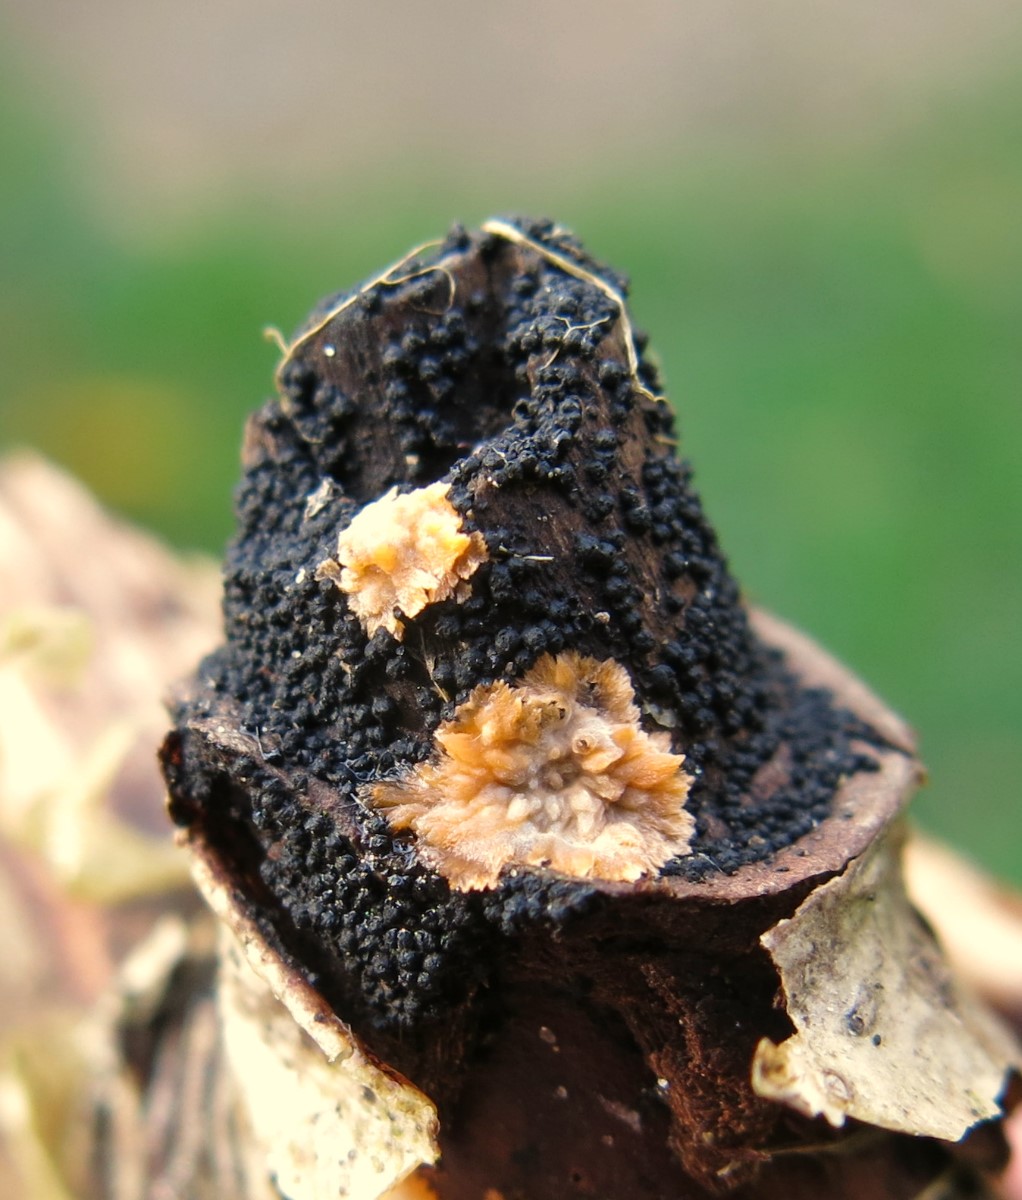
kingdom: Fungi
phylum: Basidiomycota
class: Agaricomycetes
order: Polyporales
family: Meruliaceae
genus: Phlebia
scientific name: Phlebia radiata
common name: stråle-åresvamp
